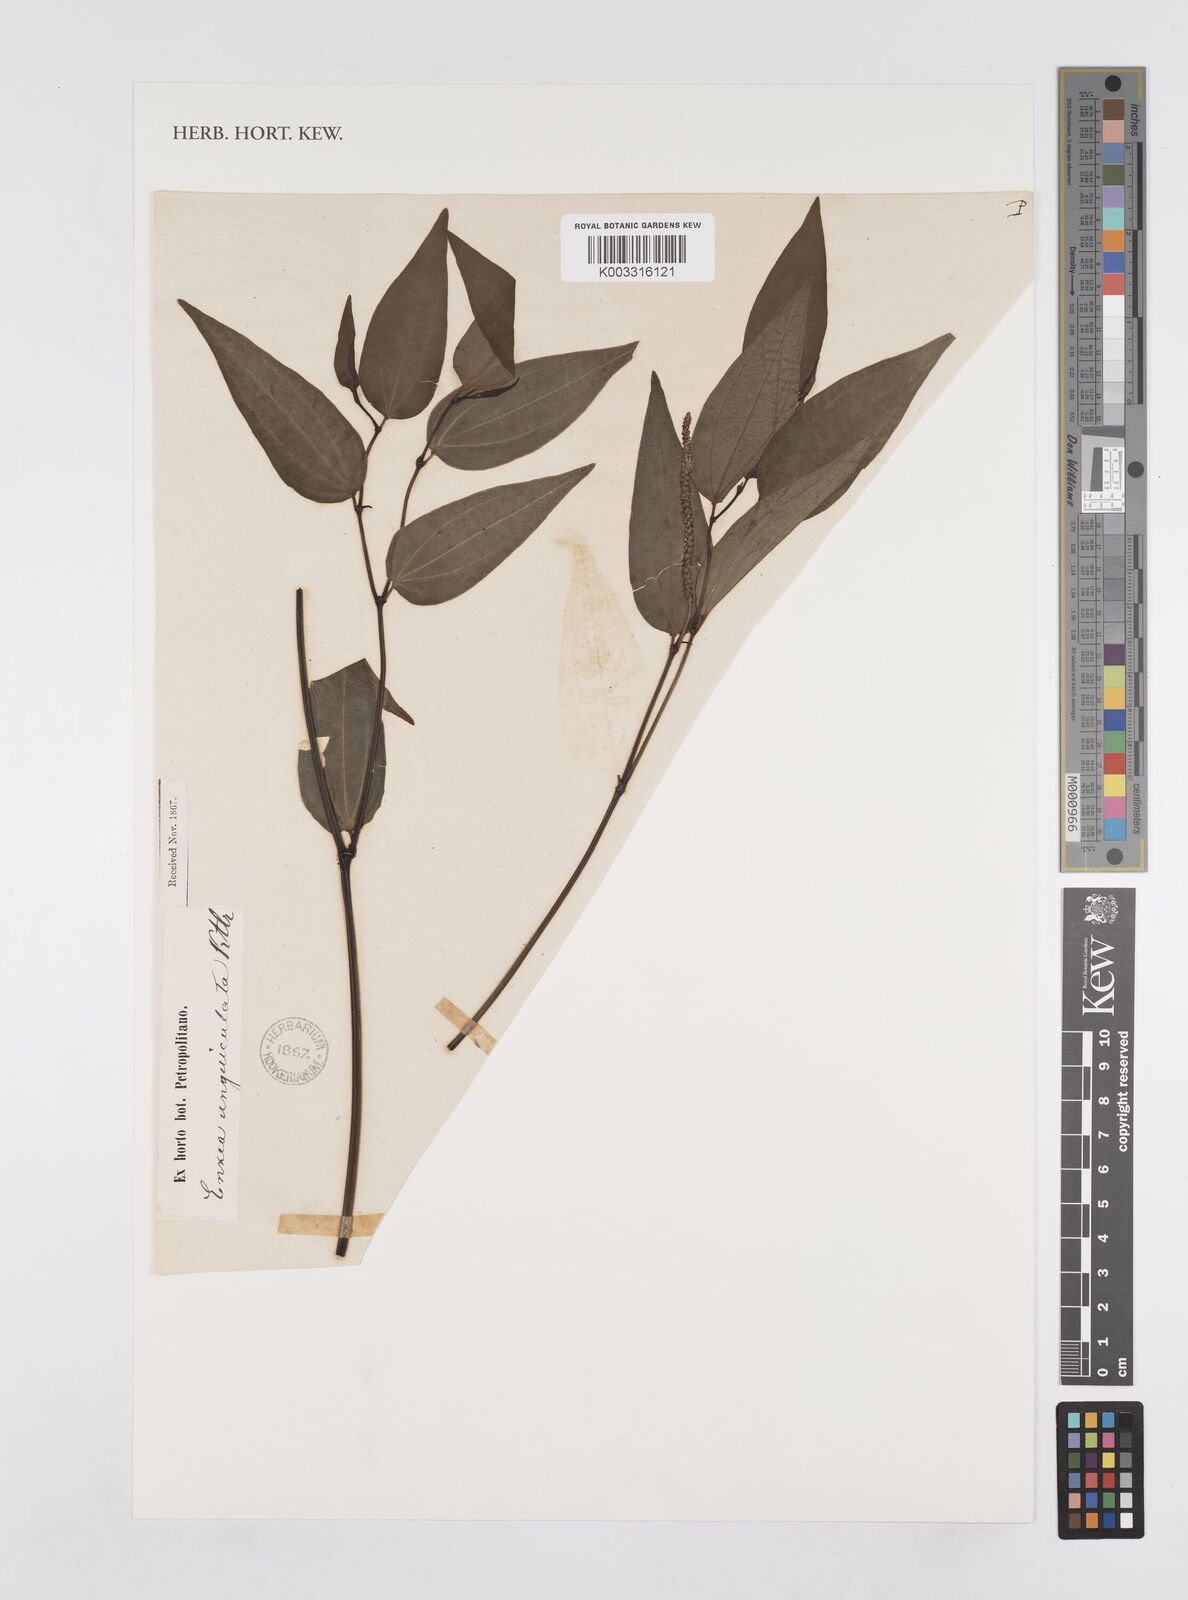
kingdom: Plantae
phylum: Tracheophyta
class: Magnoliopsida
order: Piperales
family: Piperaceae
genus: Piper
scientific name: Piper
